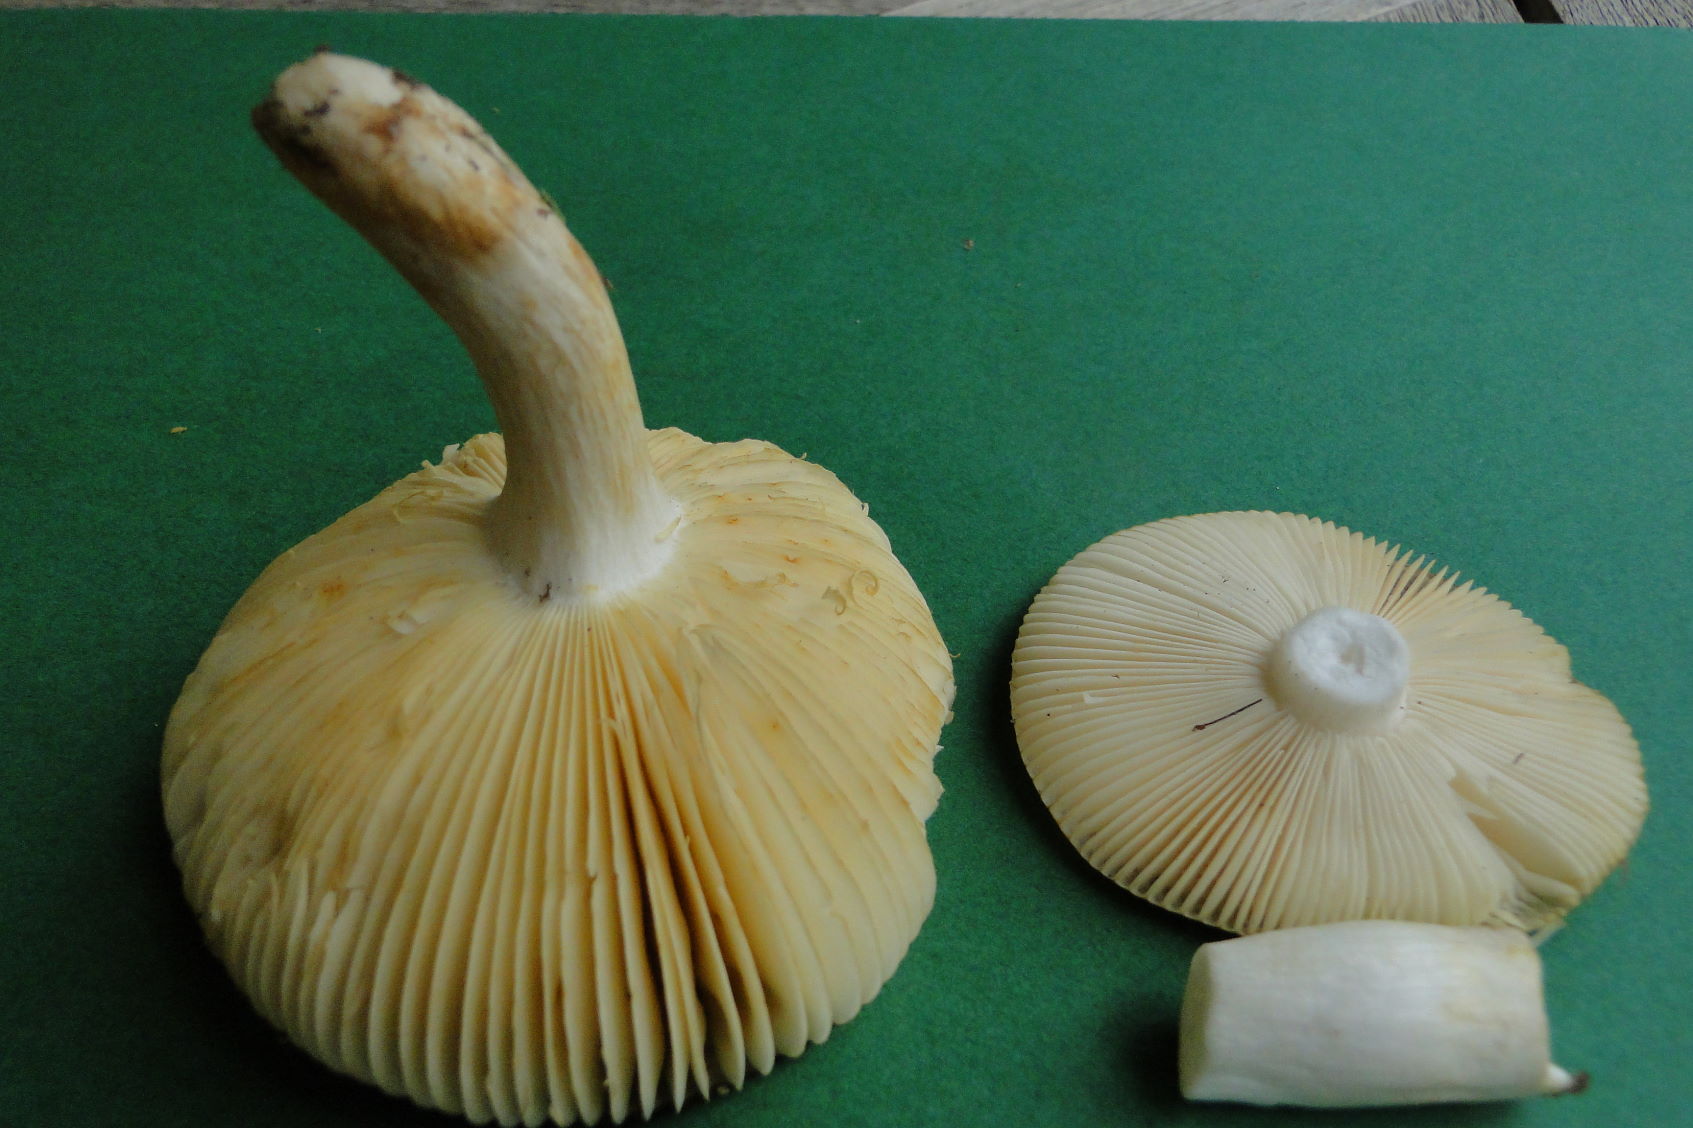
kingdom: Fungi
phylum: Basidiomycota
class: Agaricomycetes
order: Russulales
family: Russulaceae
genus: Russula
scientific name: Russula versicolor
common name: foranderlig skørhat
